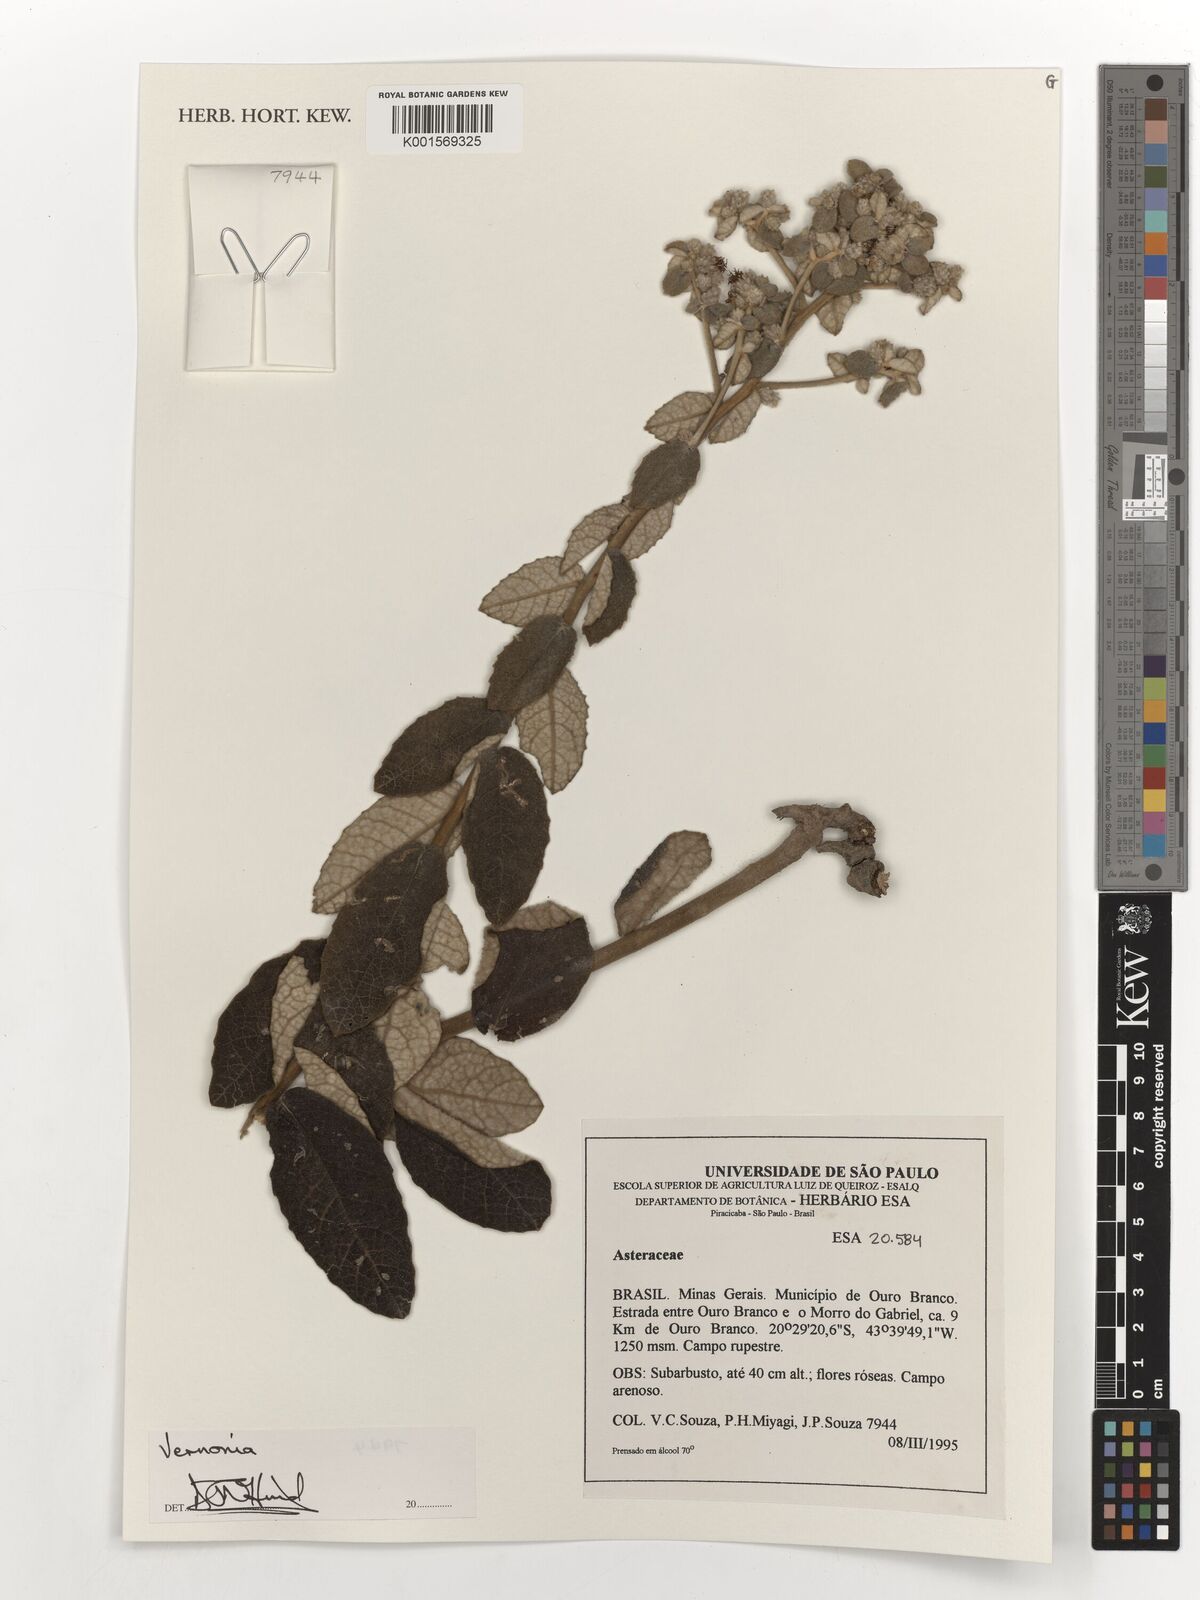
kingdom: Plantae
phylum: Tracheophyta
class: Magnoliopsida
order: Asterales
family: Asteraceae
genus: Vernonia
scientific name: Vernonia
